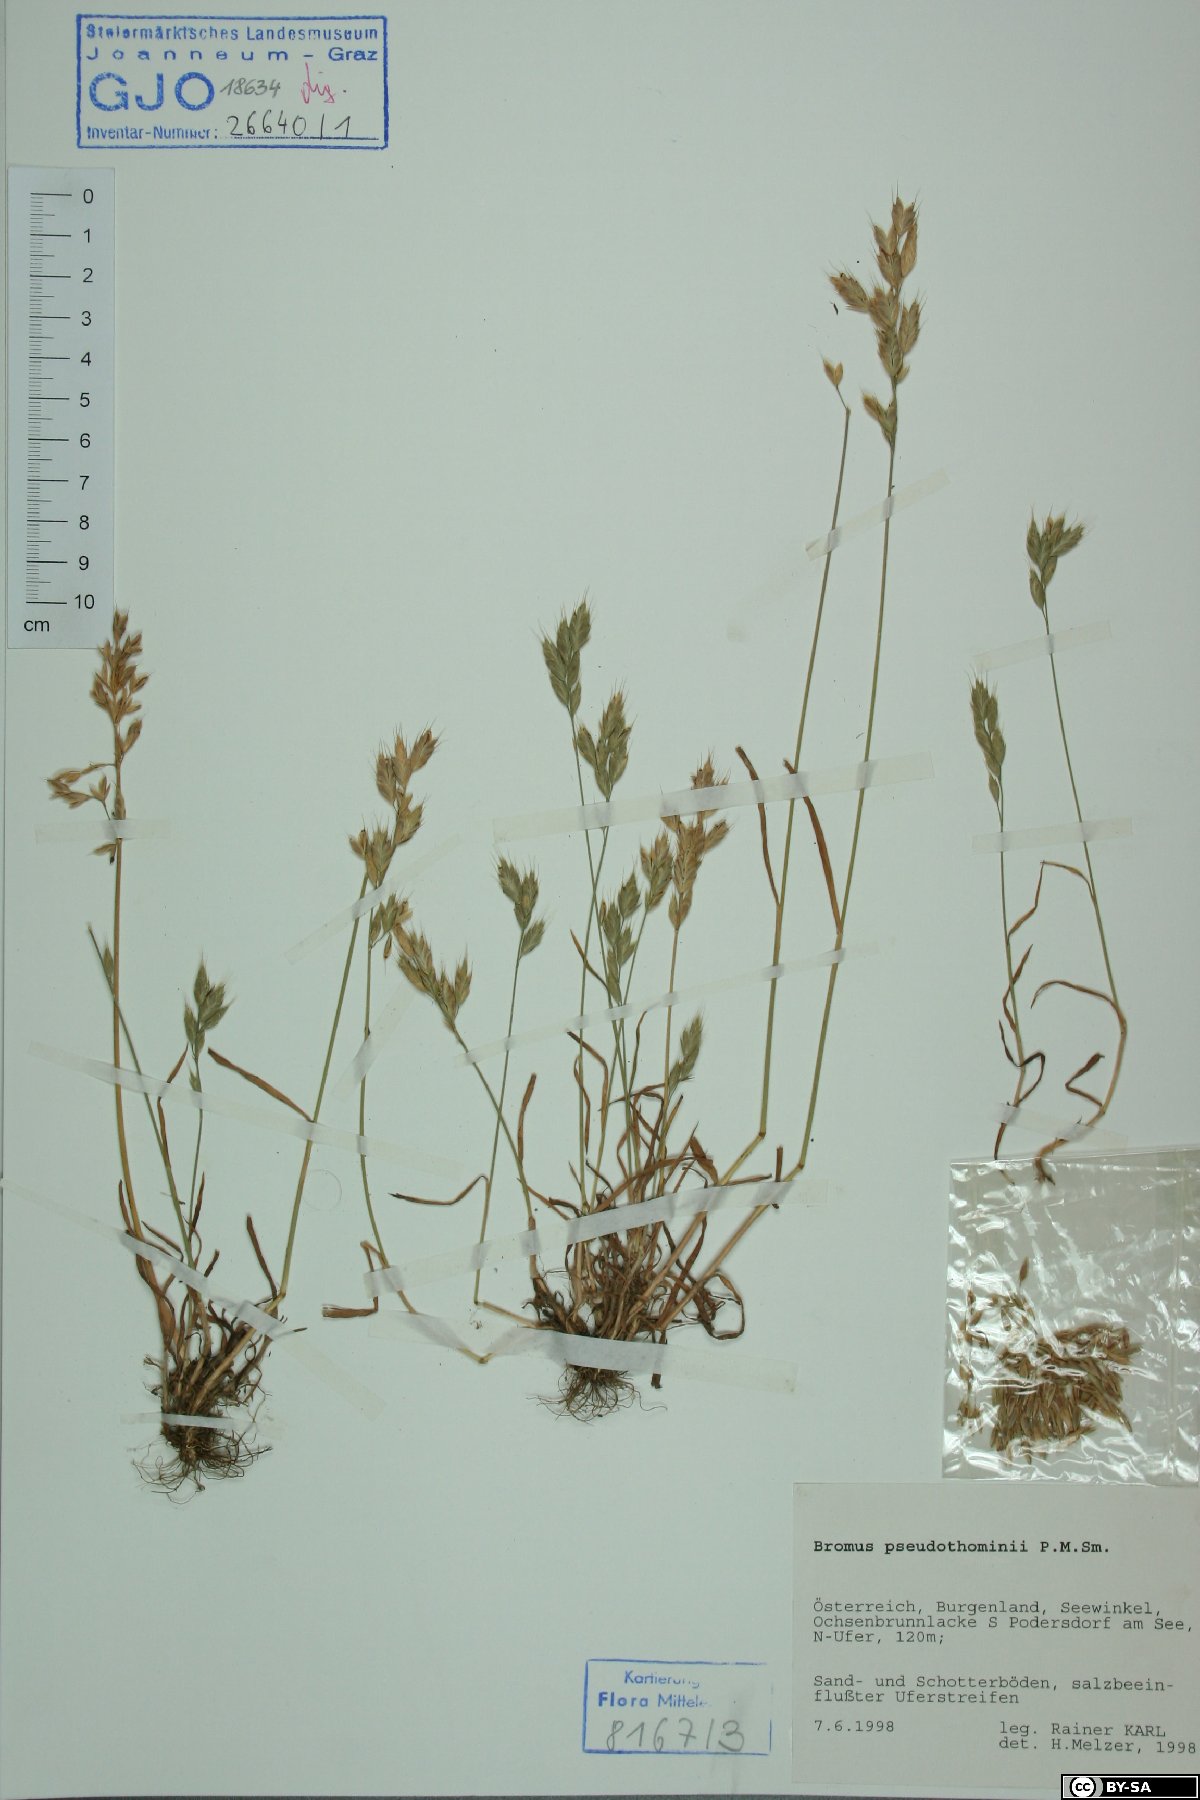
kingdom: Plantae
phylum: Tracheophyta
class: Liliopsida
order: Poales
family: Poaceae
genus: Bromus
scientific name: Bromus ferronii
